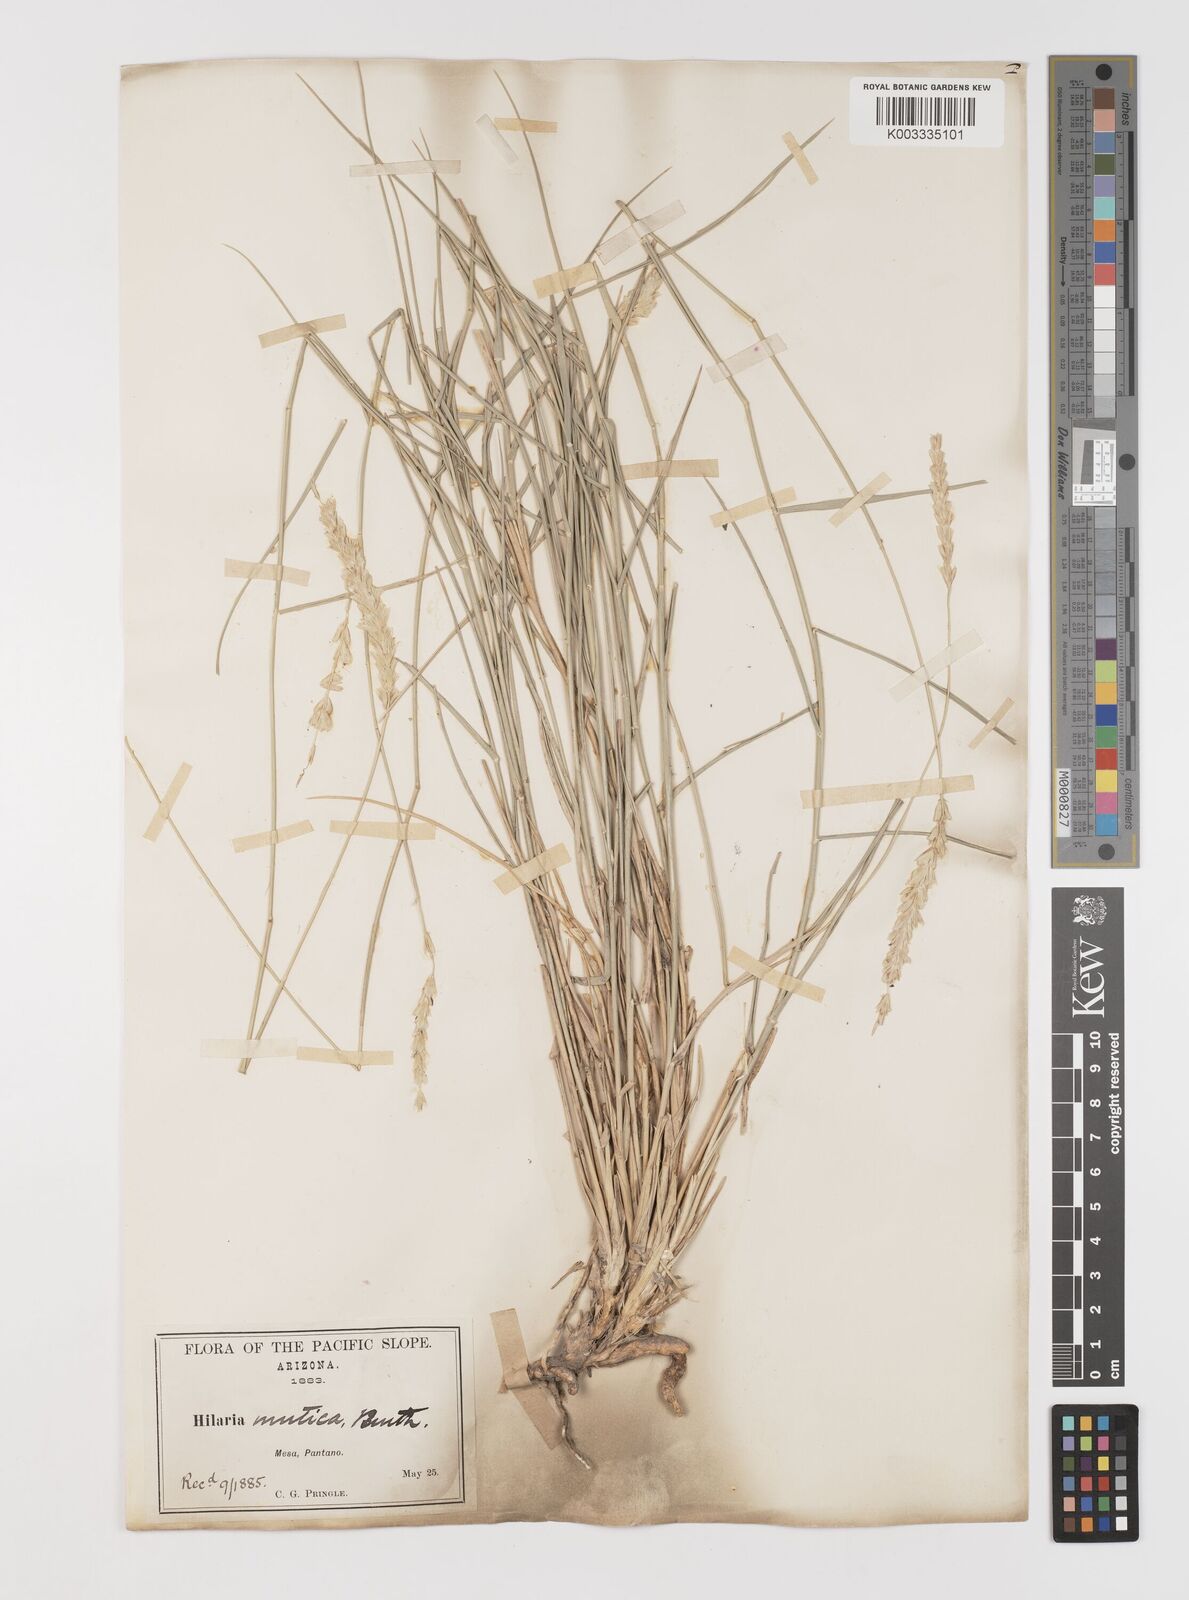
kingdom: Plantae
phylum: Tracheophyta
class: Liliopsida
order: Poales
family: Poaceae
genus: Hilaria
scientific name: Hilaria mutica
